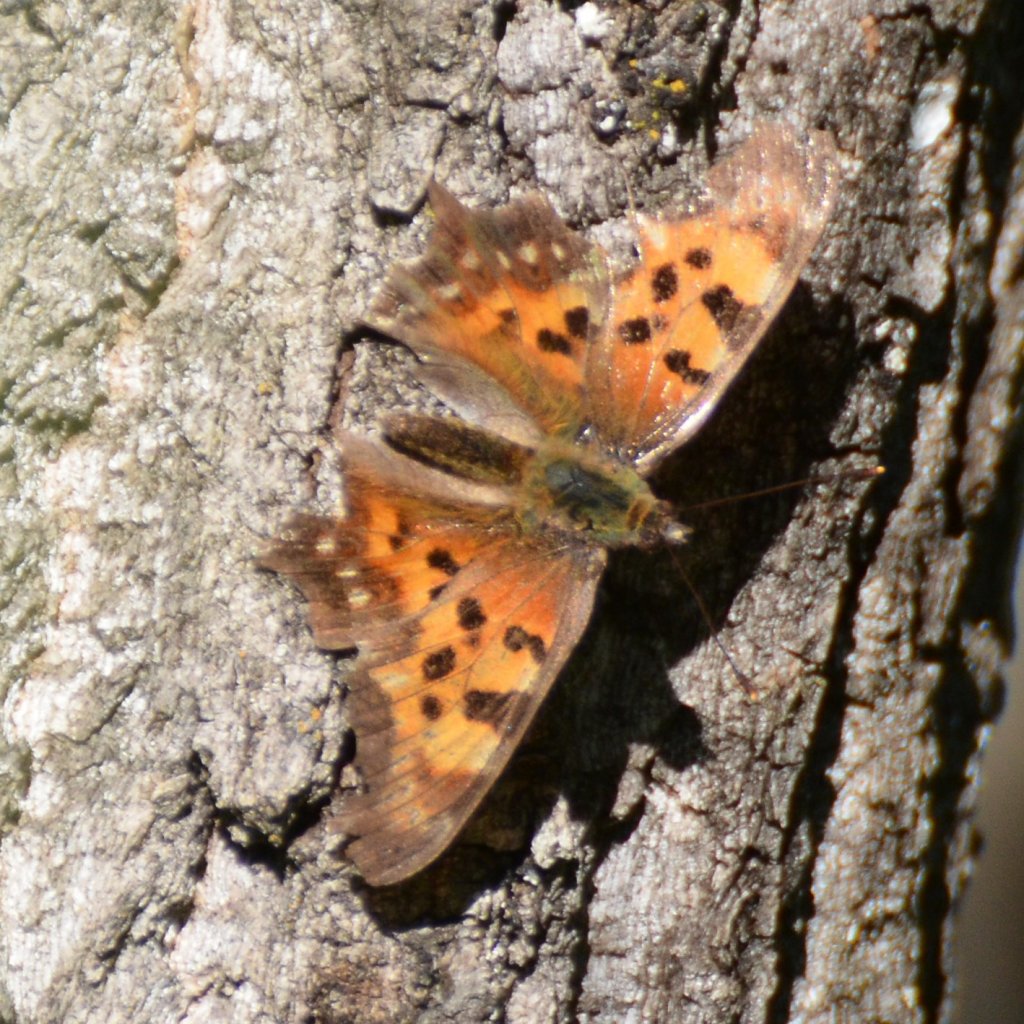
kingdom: Animalia
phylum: Arthropoda
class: Insecta
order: Lepidoptera
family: Nymphalidae
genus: Polygonia
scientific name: Polygonia faunus
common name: Green Comma
